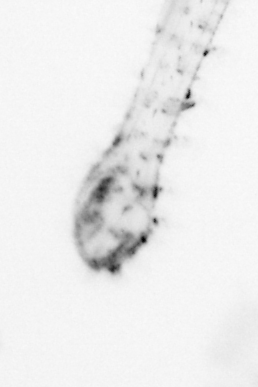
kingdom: Animalia
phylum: Chaetognatha
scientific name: Chaetognatha
